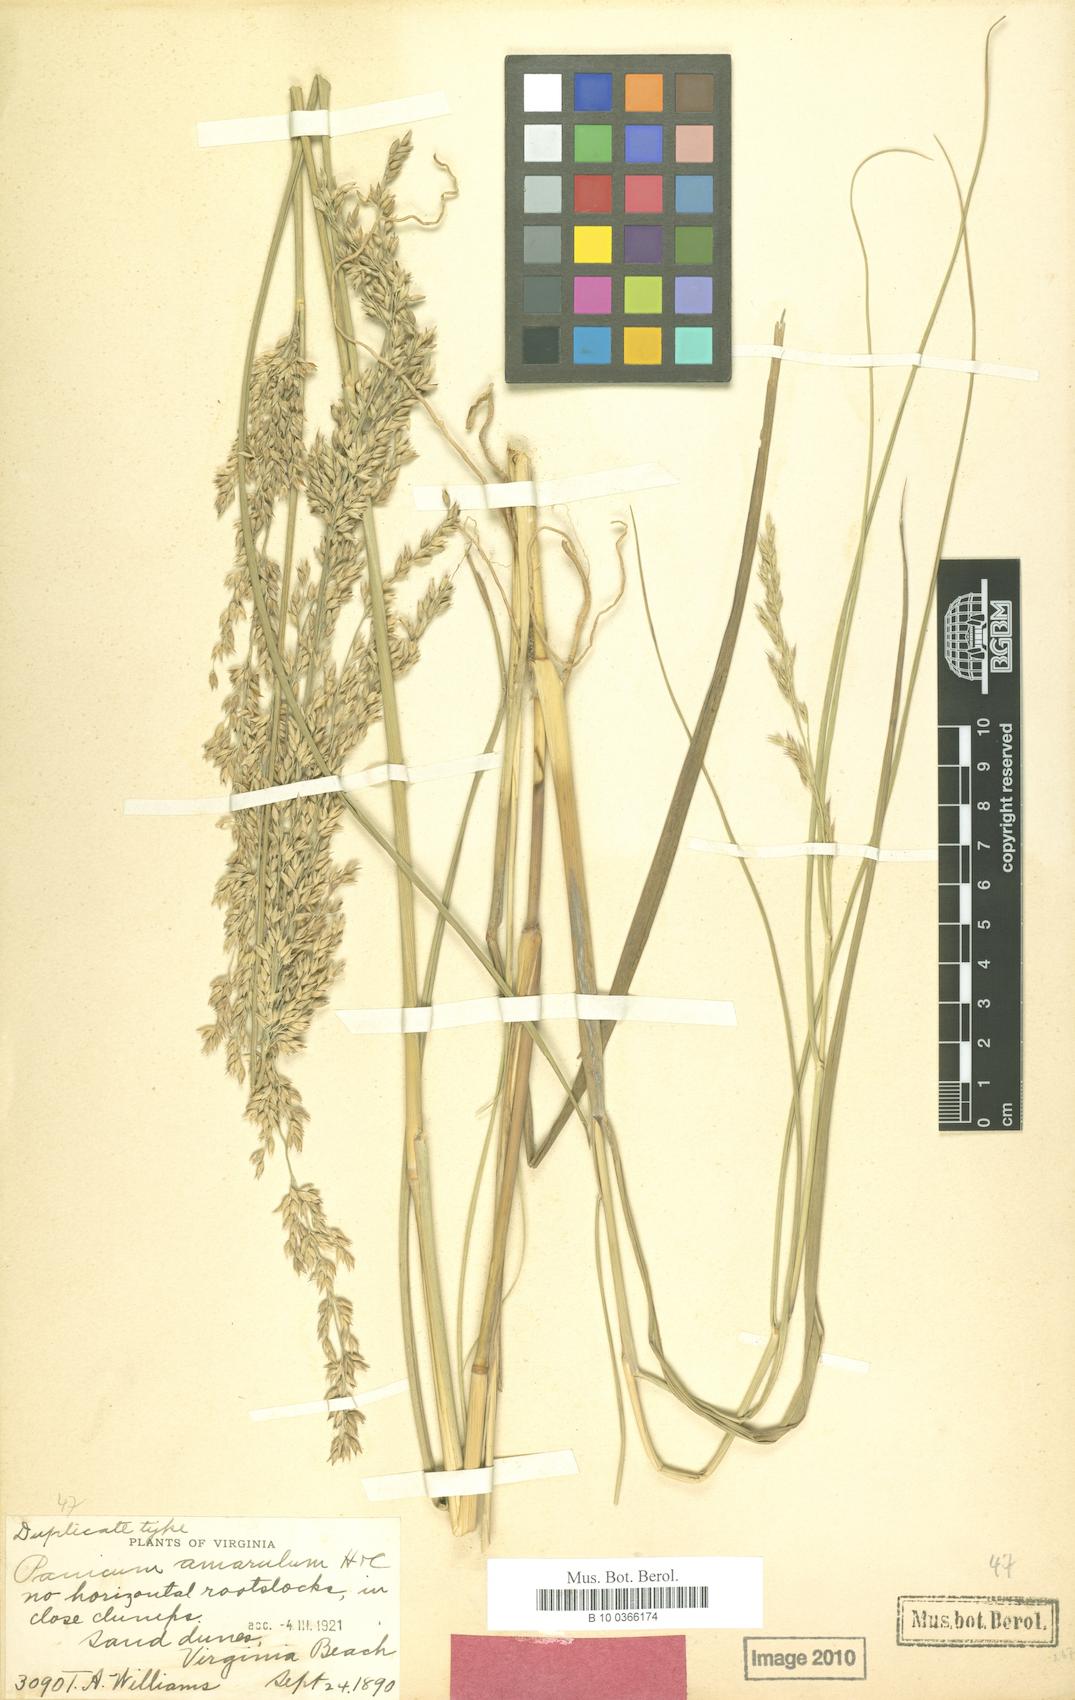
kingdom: Plantae
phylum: Tracheophyta
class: Liliopsida
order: Poales
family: Poaceae
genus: Panicum
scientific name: Panicum amarum
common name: Bitter panicum
